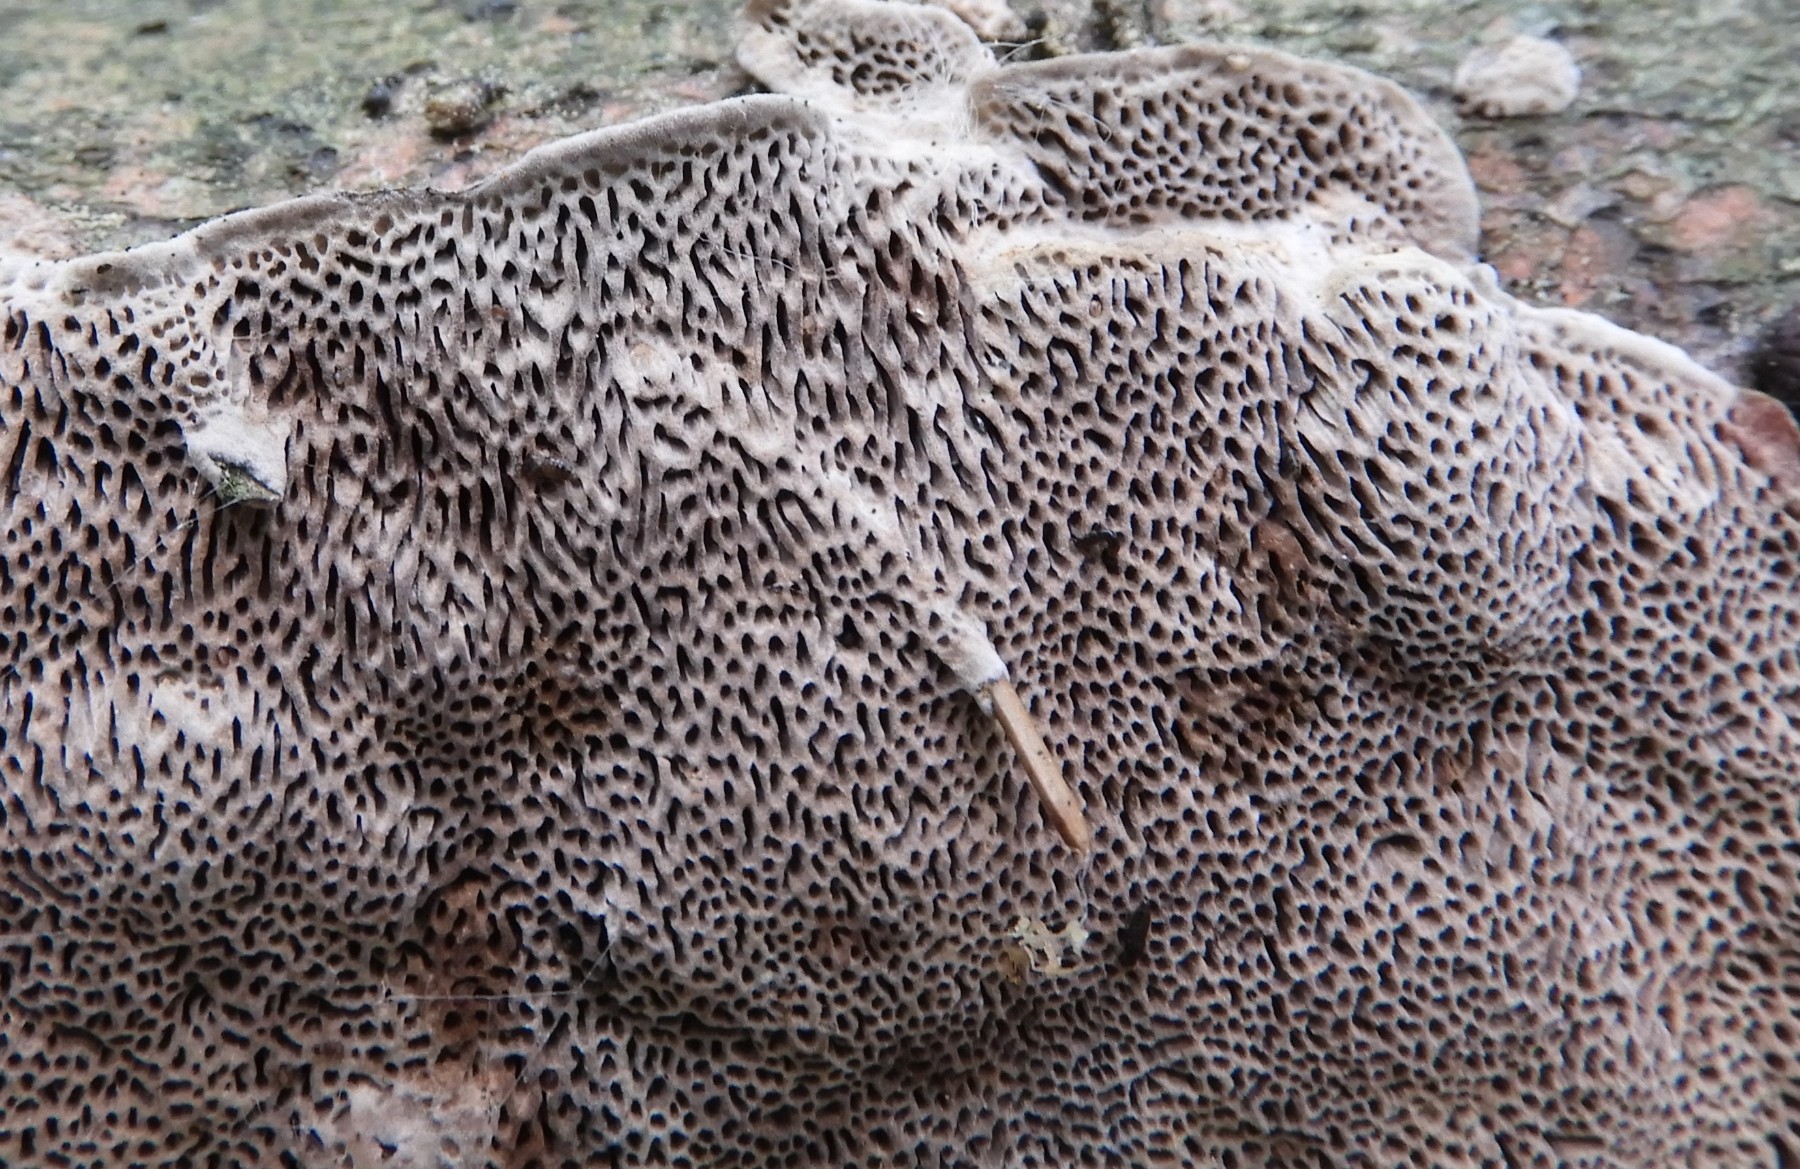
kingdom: Fungi
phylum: Basidiomycota
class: Agaricomycetes
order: Polyporales
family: Polyporaceae
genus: Podofomes
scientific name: Podofomes mollis
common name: blød begporesvamp
